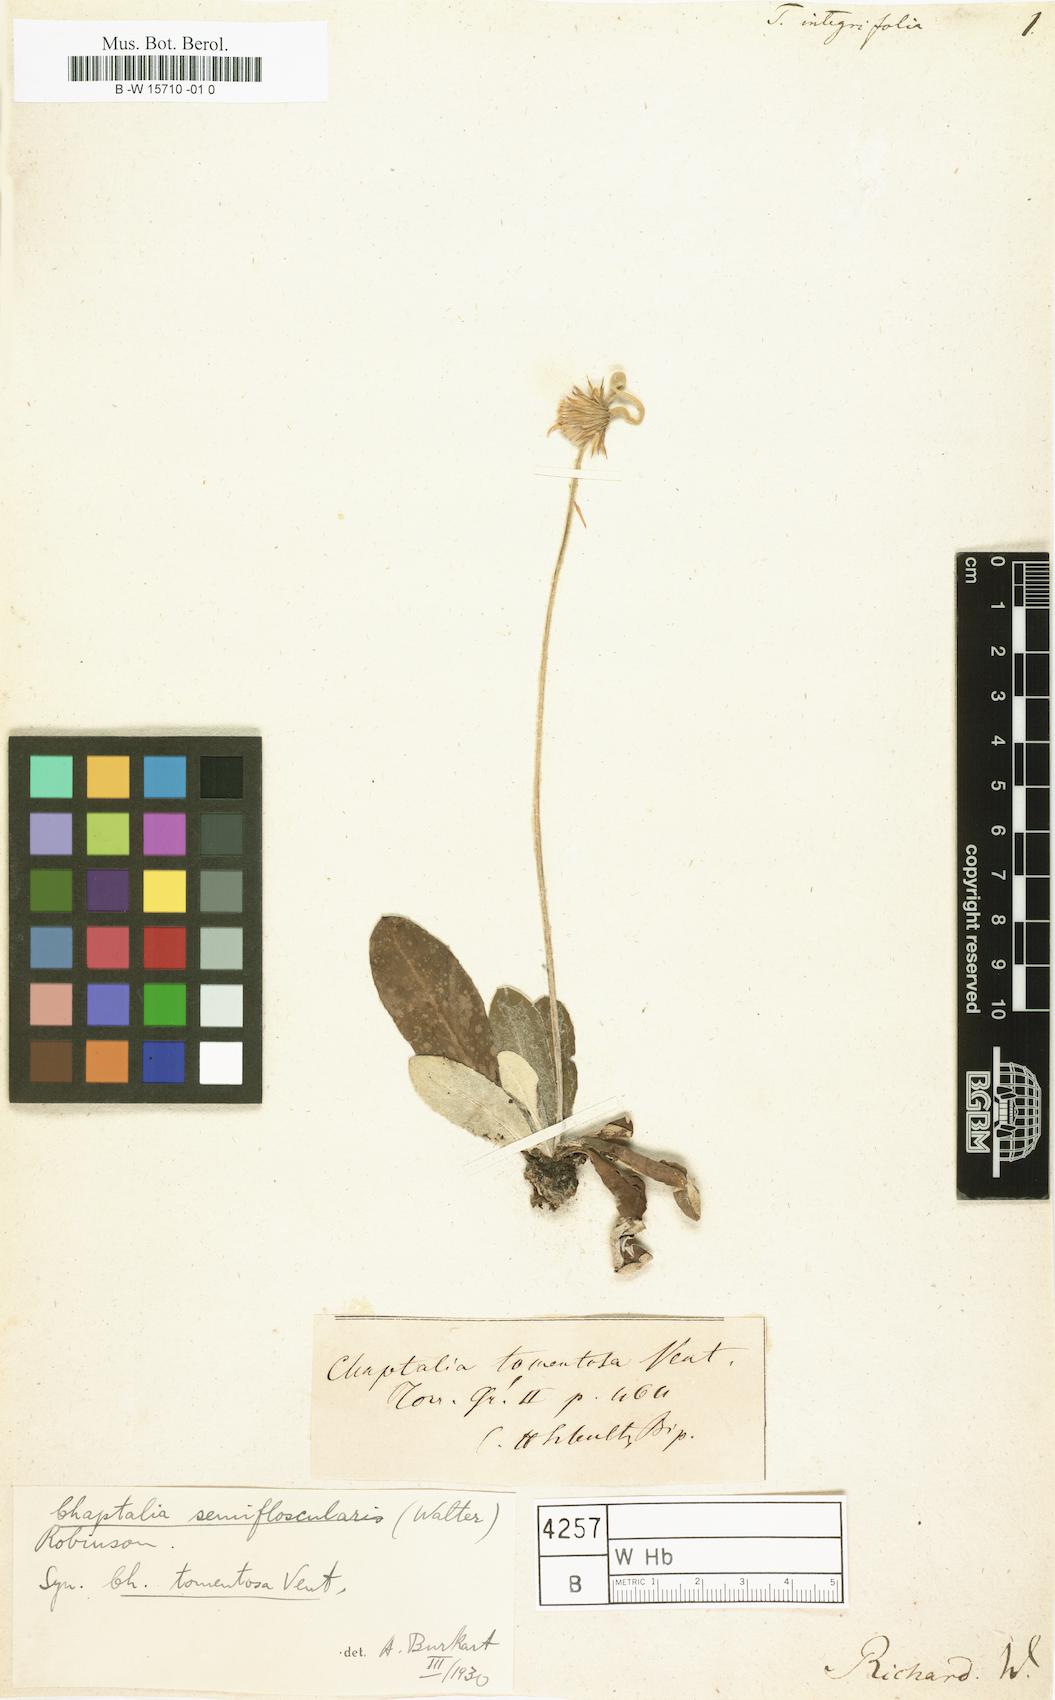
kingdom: Plantae
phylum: Tracheophyta
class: Magnoliopsida
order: Asterales
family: Asteraceae
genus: Chaptalia
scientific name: Chaptalia tomentosa
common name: Woolly sunbonnet
